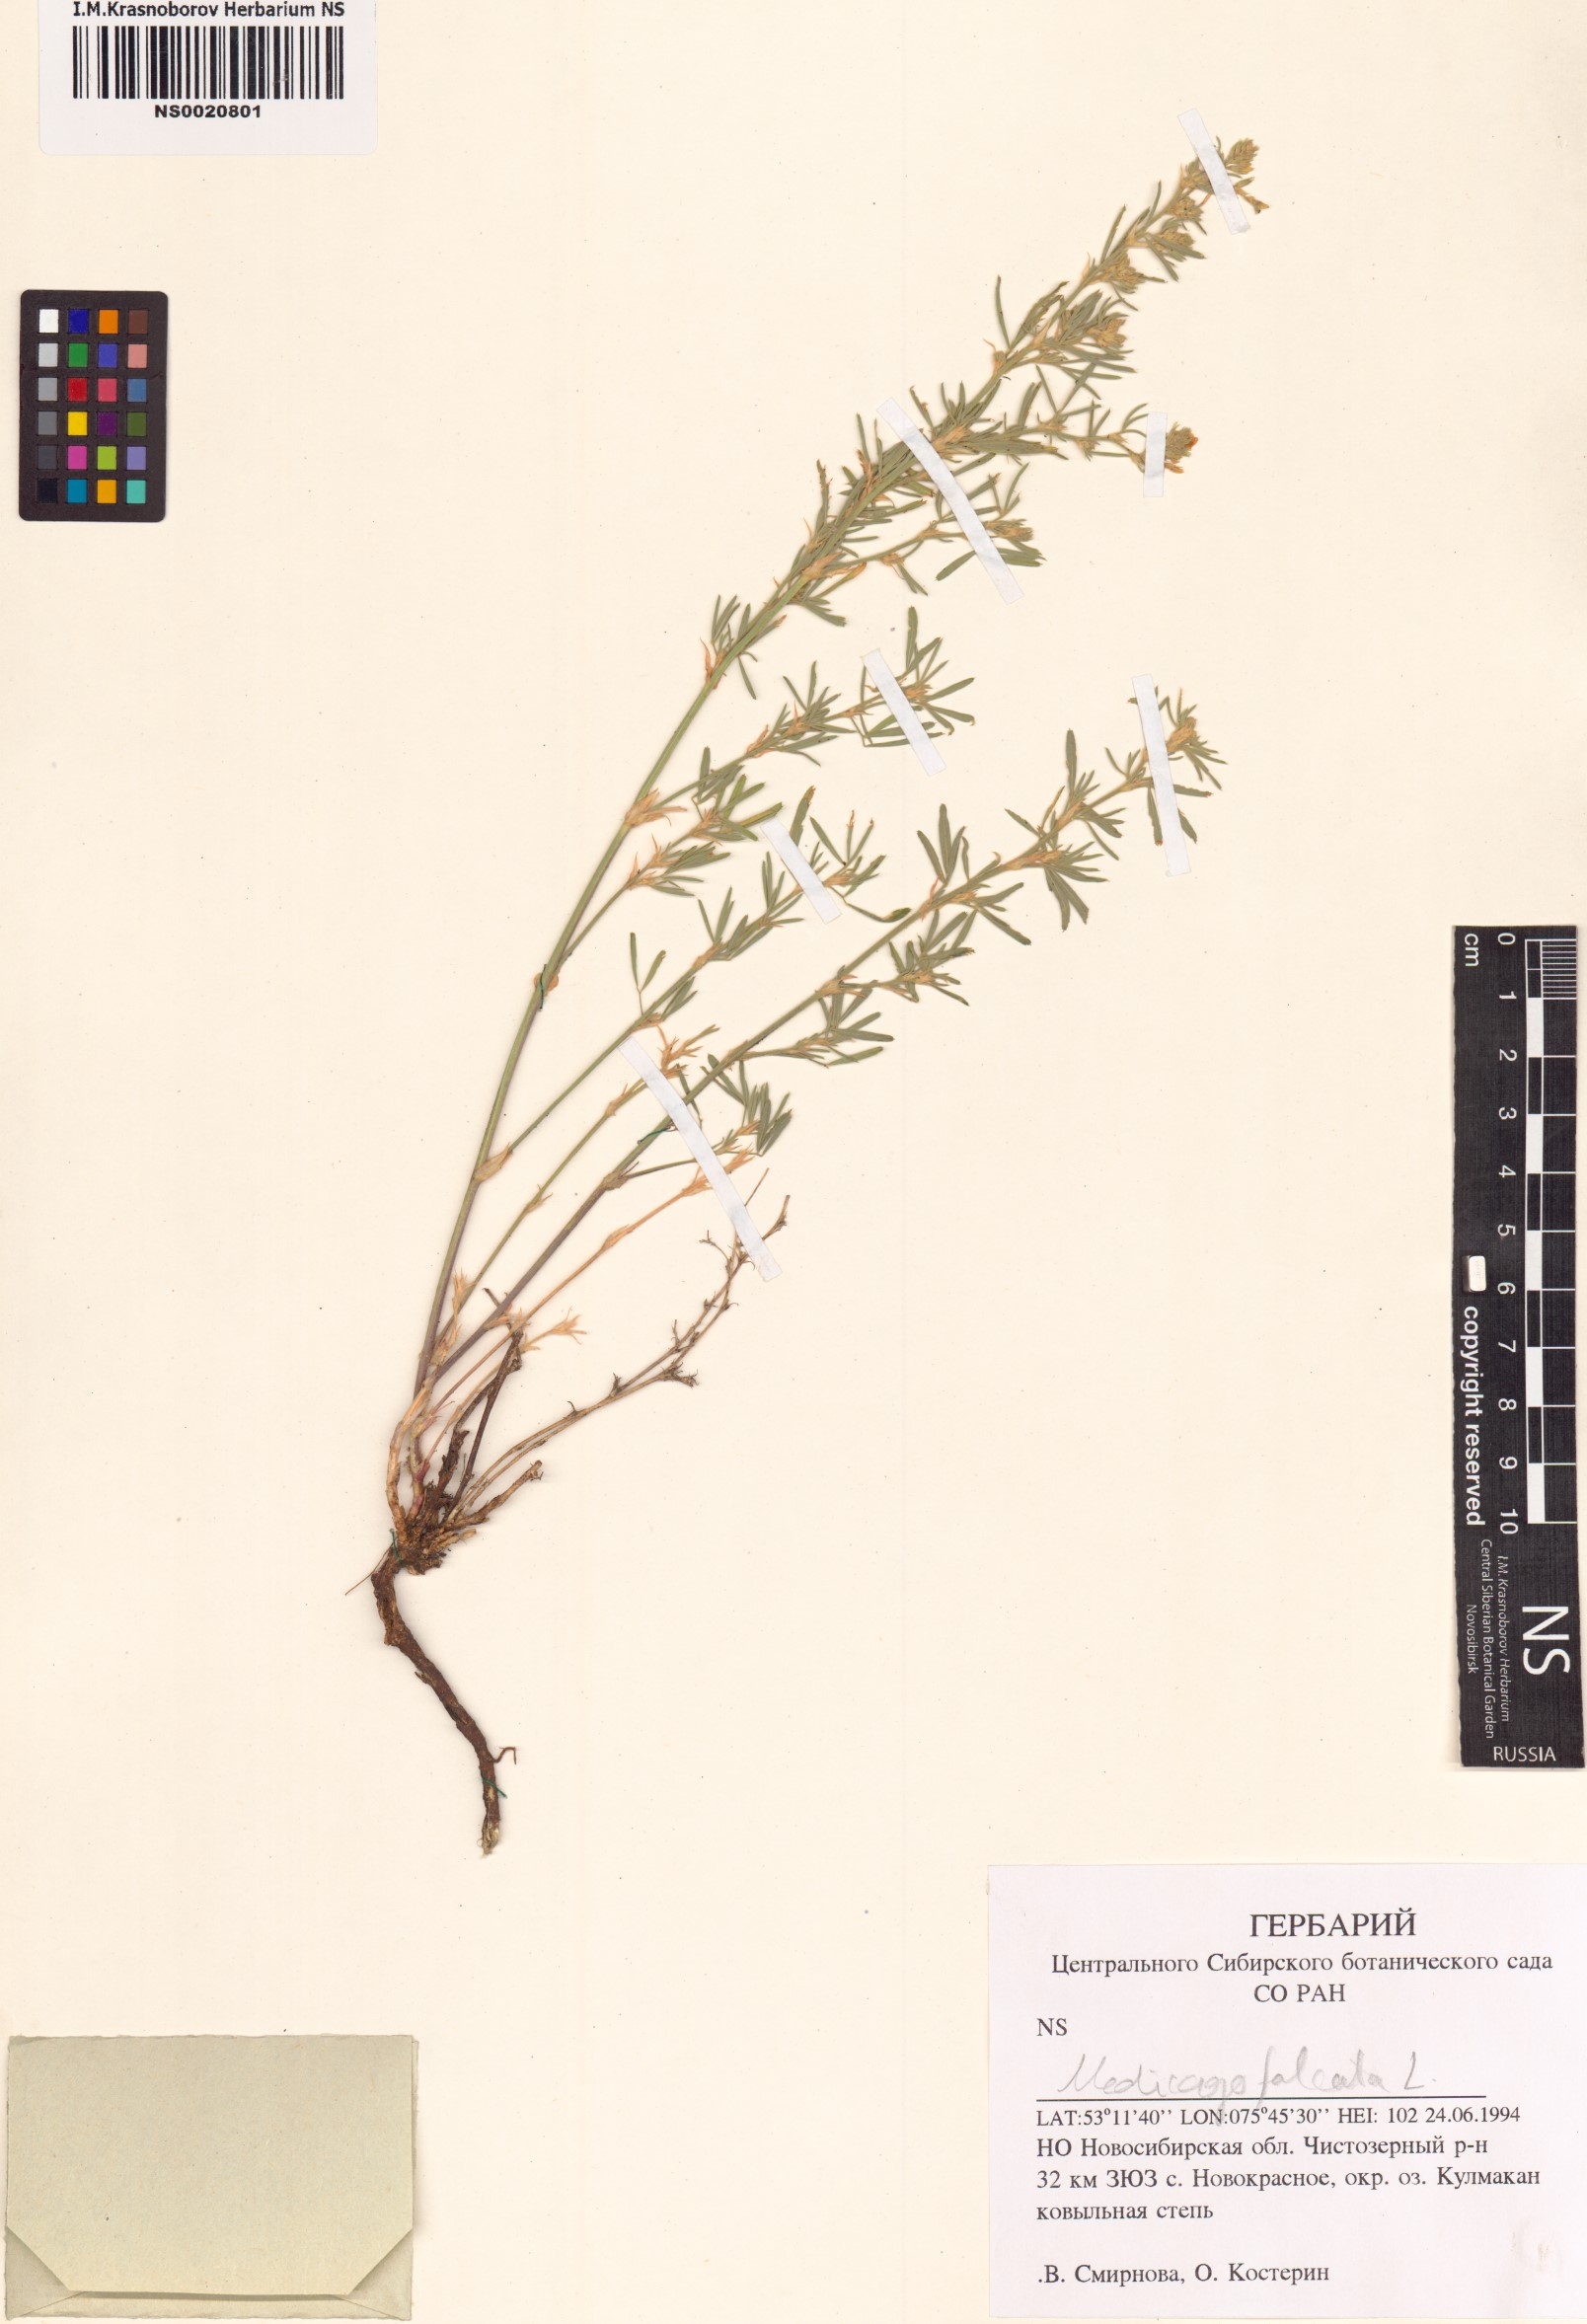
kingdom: Plantae
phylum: Tracheophyta
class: Magnoliopsida
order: Fabales
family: Fabaceae
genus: Medicago
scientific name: Medicago falcata
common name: Sickle medick
